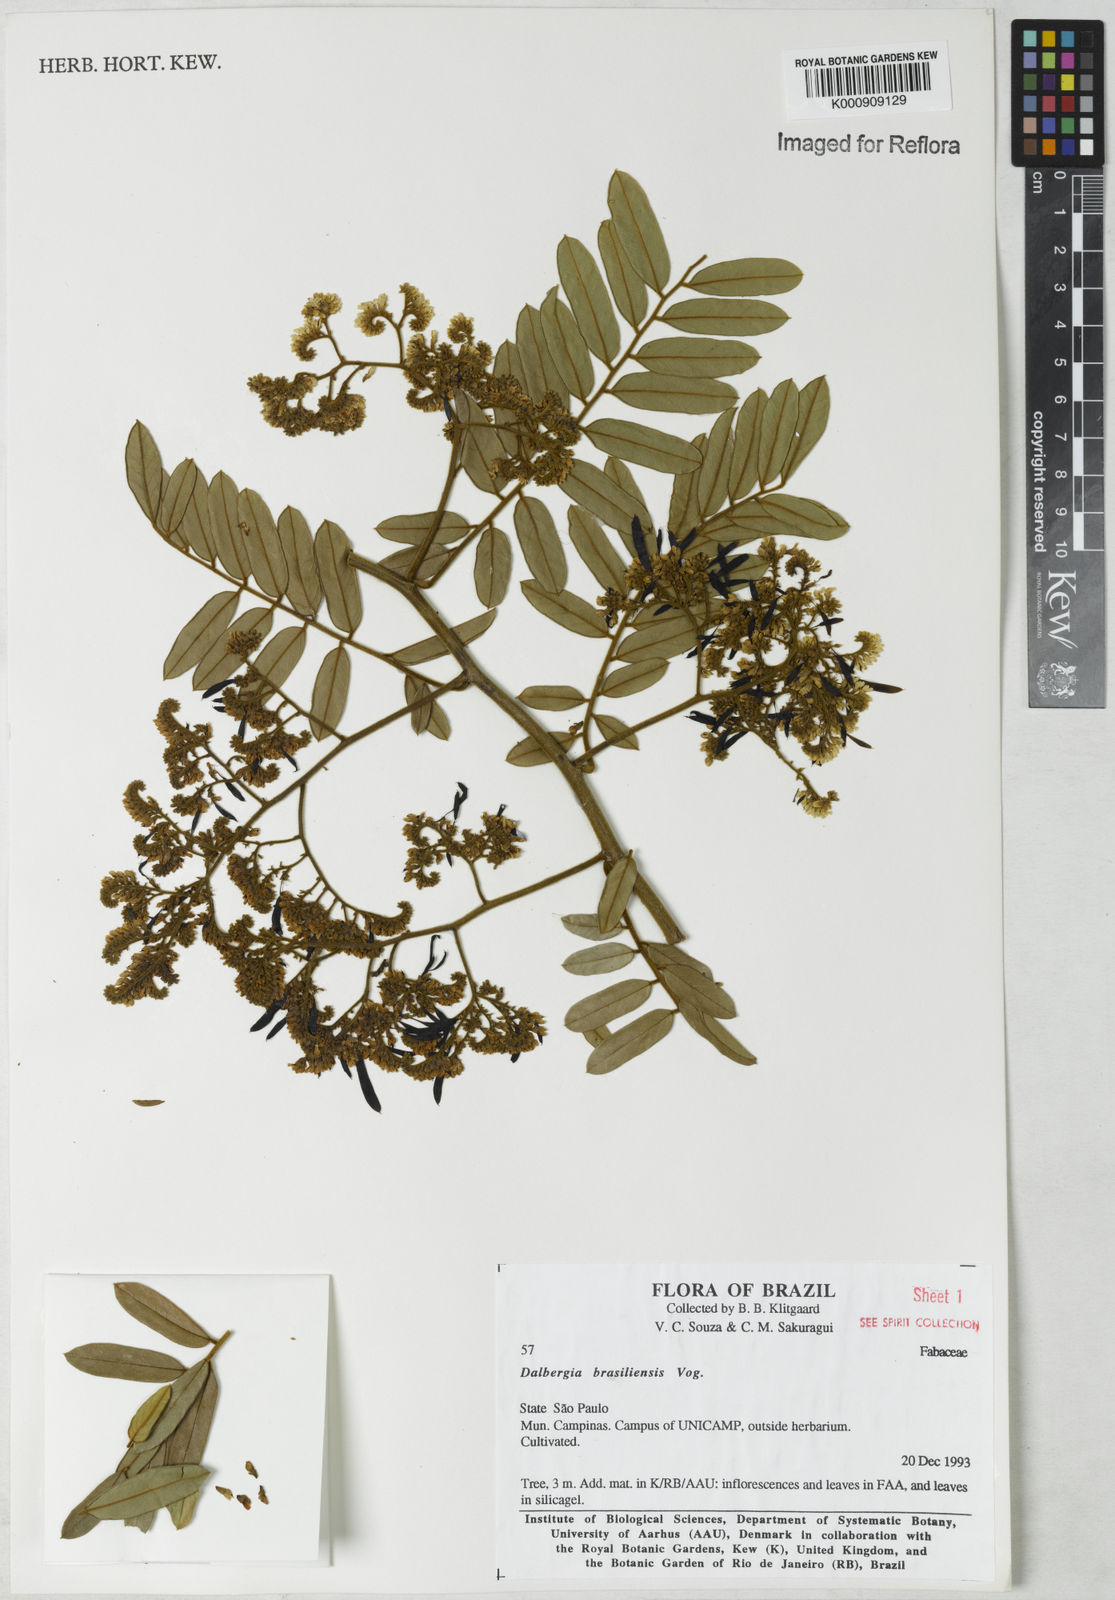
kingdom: Plantae
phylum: Tracheophyta
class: Magnoliopsida
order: Fabales
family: Fabaceae
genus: Dalbergia
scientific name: Dalbergia brasiliensis
